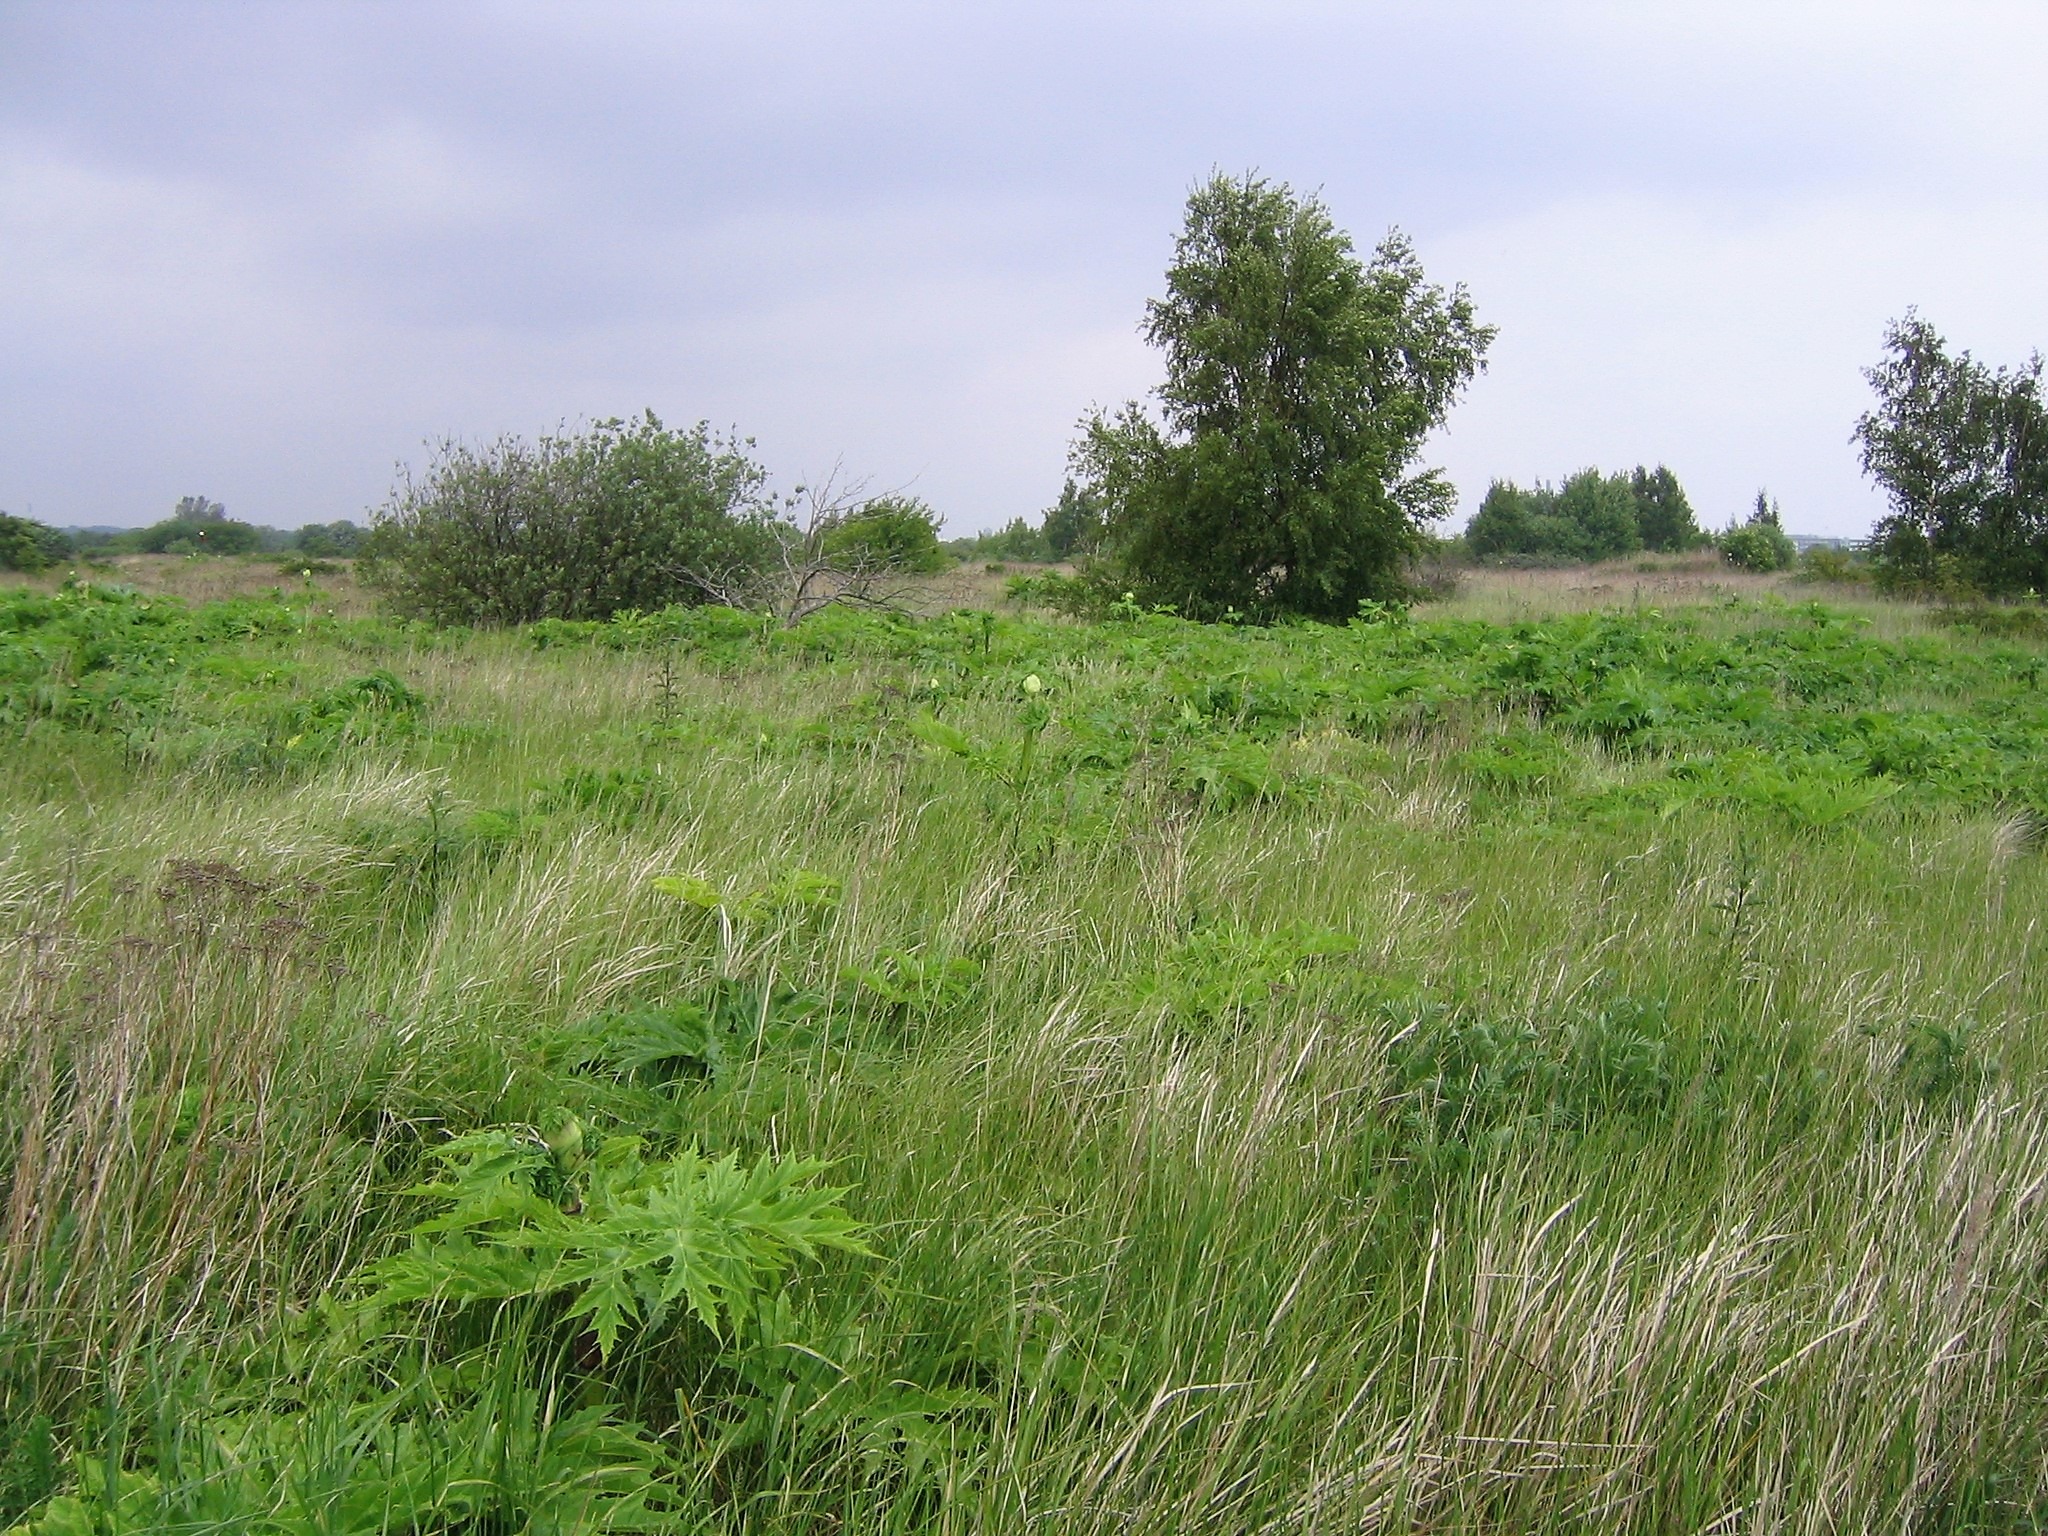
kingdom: Plantae
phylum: Tracheophyta
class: Magnoliopsida
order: Apiales
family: Apiaceae
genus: Heracleum
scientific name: Heracleum mantegazzianum
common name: Kæmpe-bjørneklo
